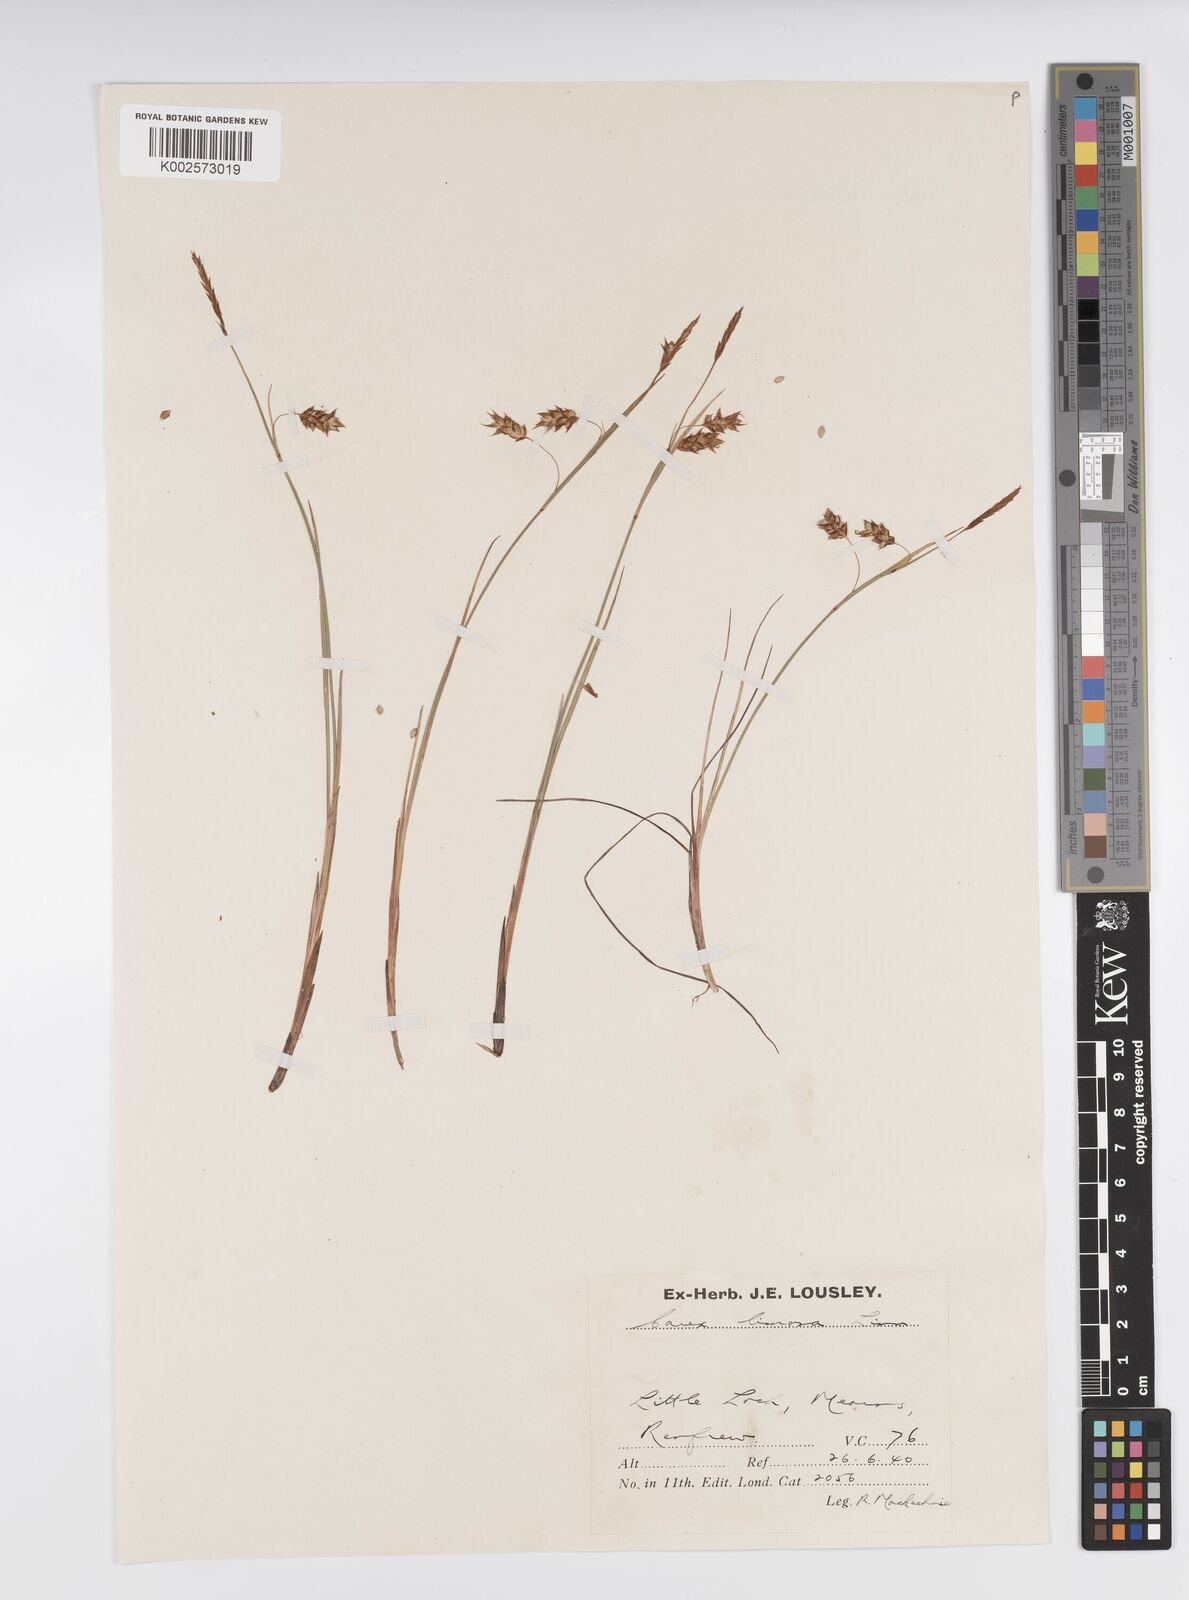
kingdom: Plantae
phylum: Tracheophyta
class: Liliopsida
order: Poales
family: Cyperaceae
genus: Carex
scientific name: Carex limosa
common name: Bog sedge
